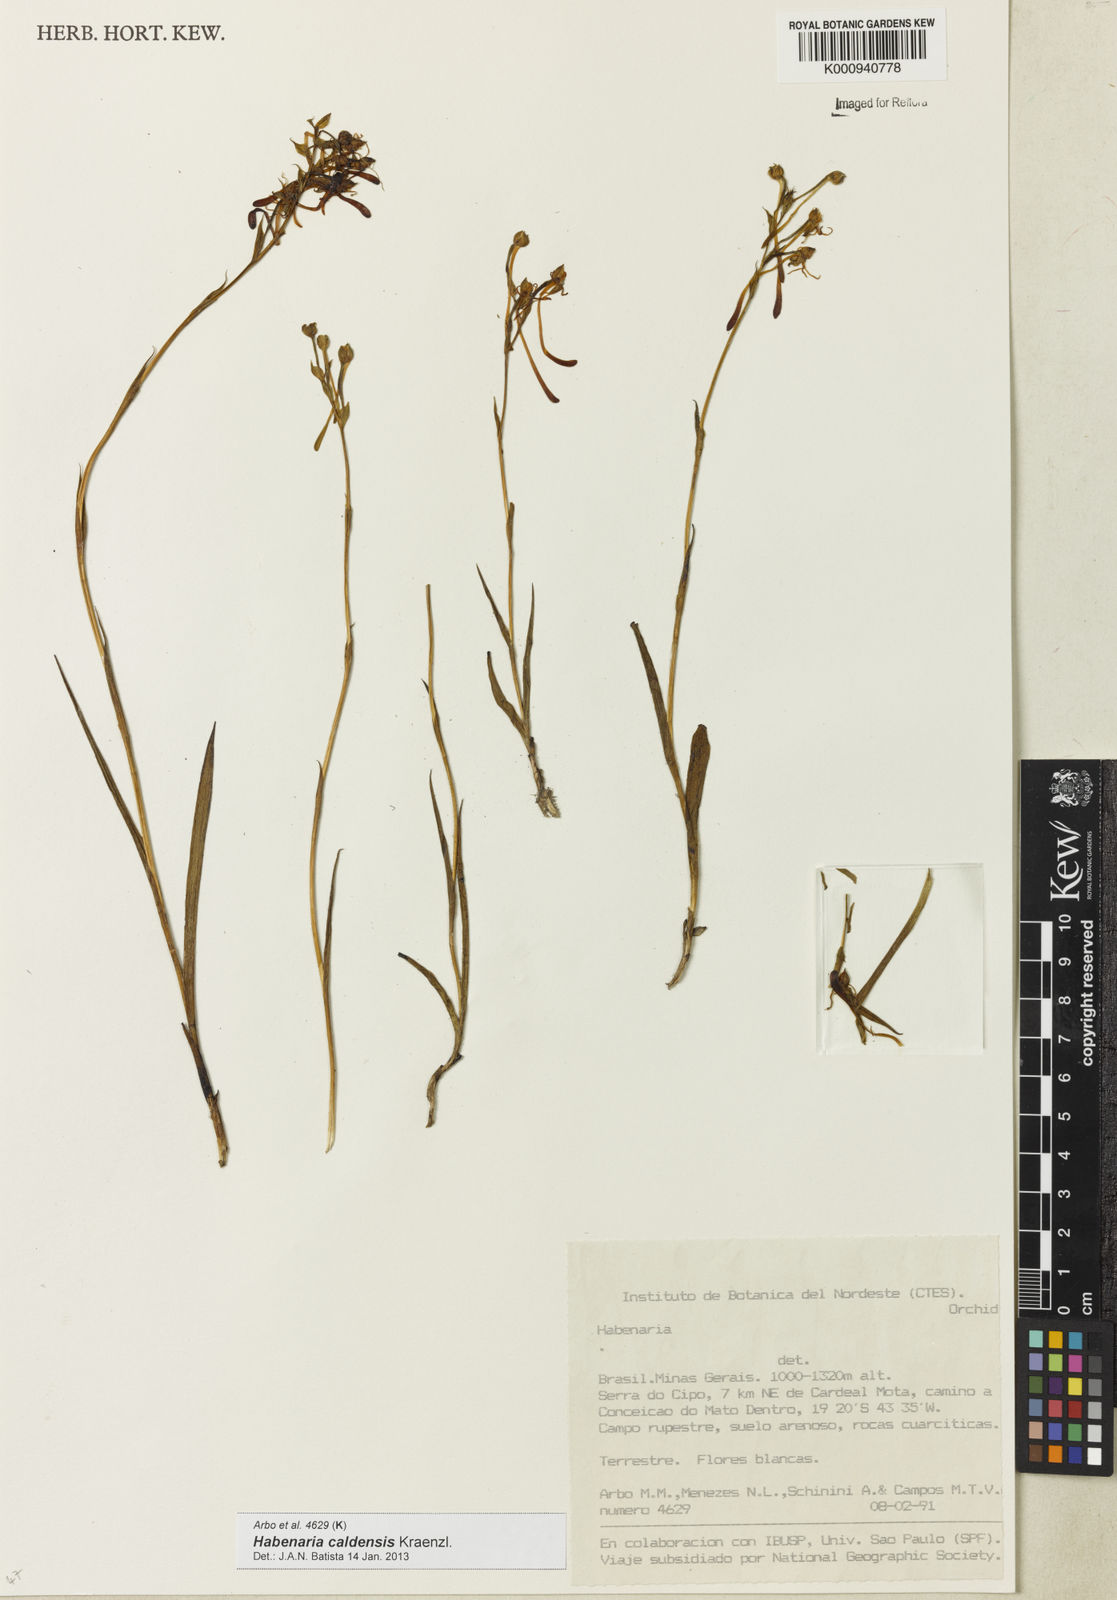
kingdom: Plantae
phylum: Tracheophyta
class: Liliopsida
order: Asparagales
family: Orchidaceae
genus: Habenaria
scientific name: Habenaria caldensis
